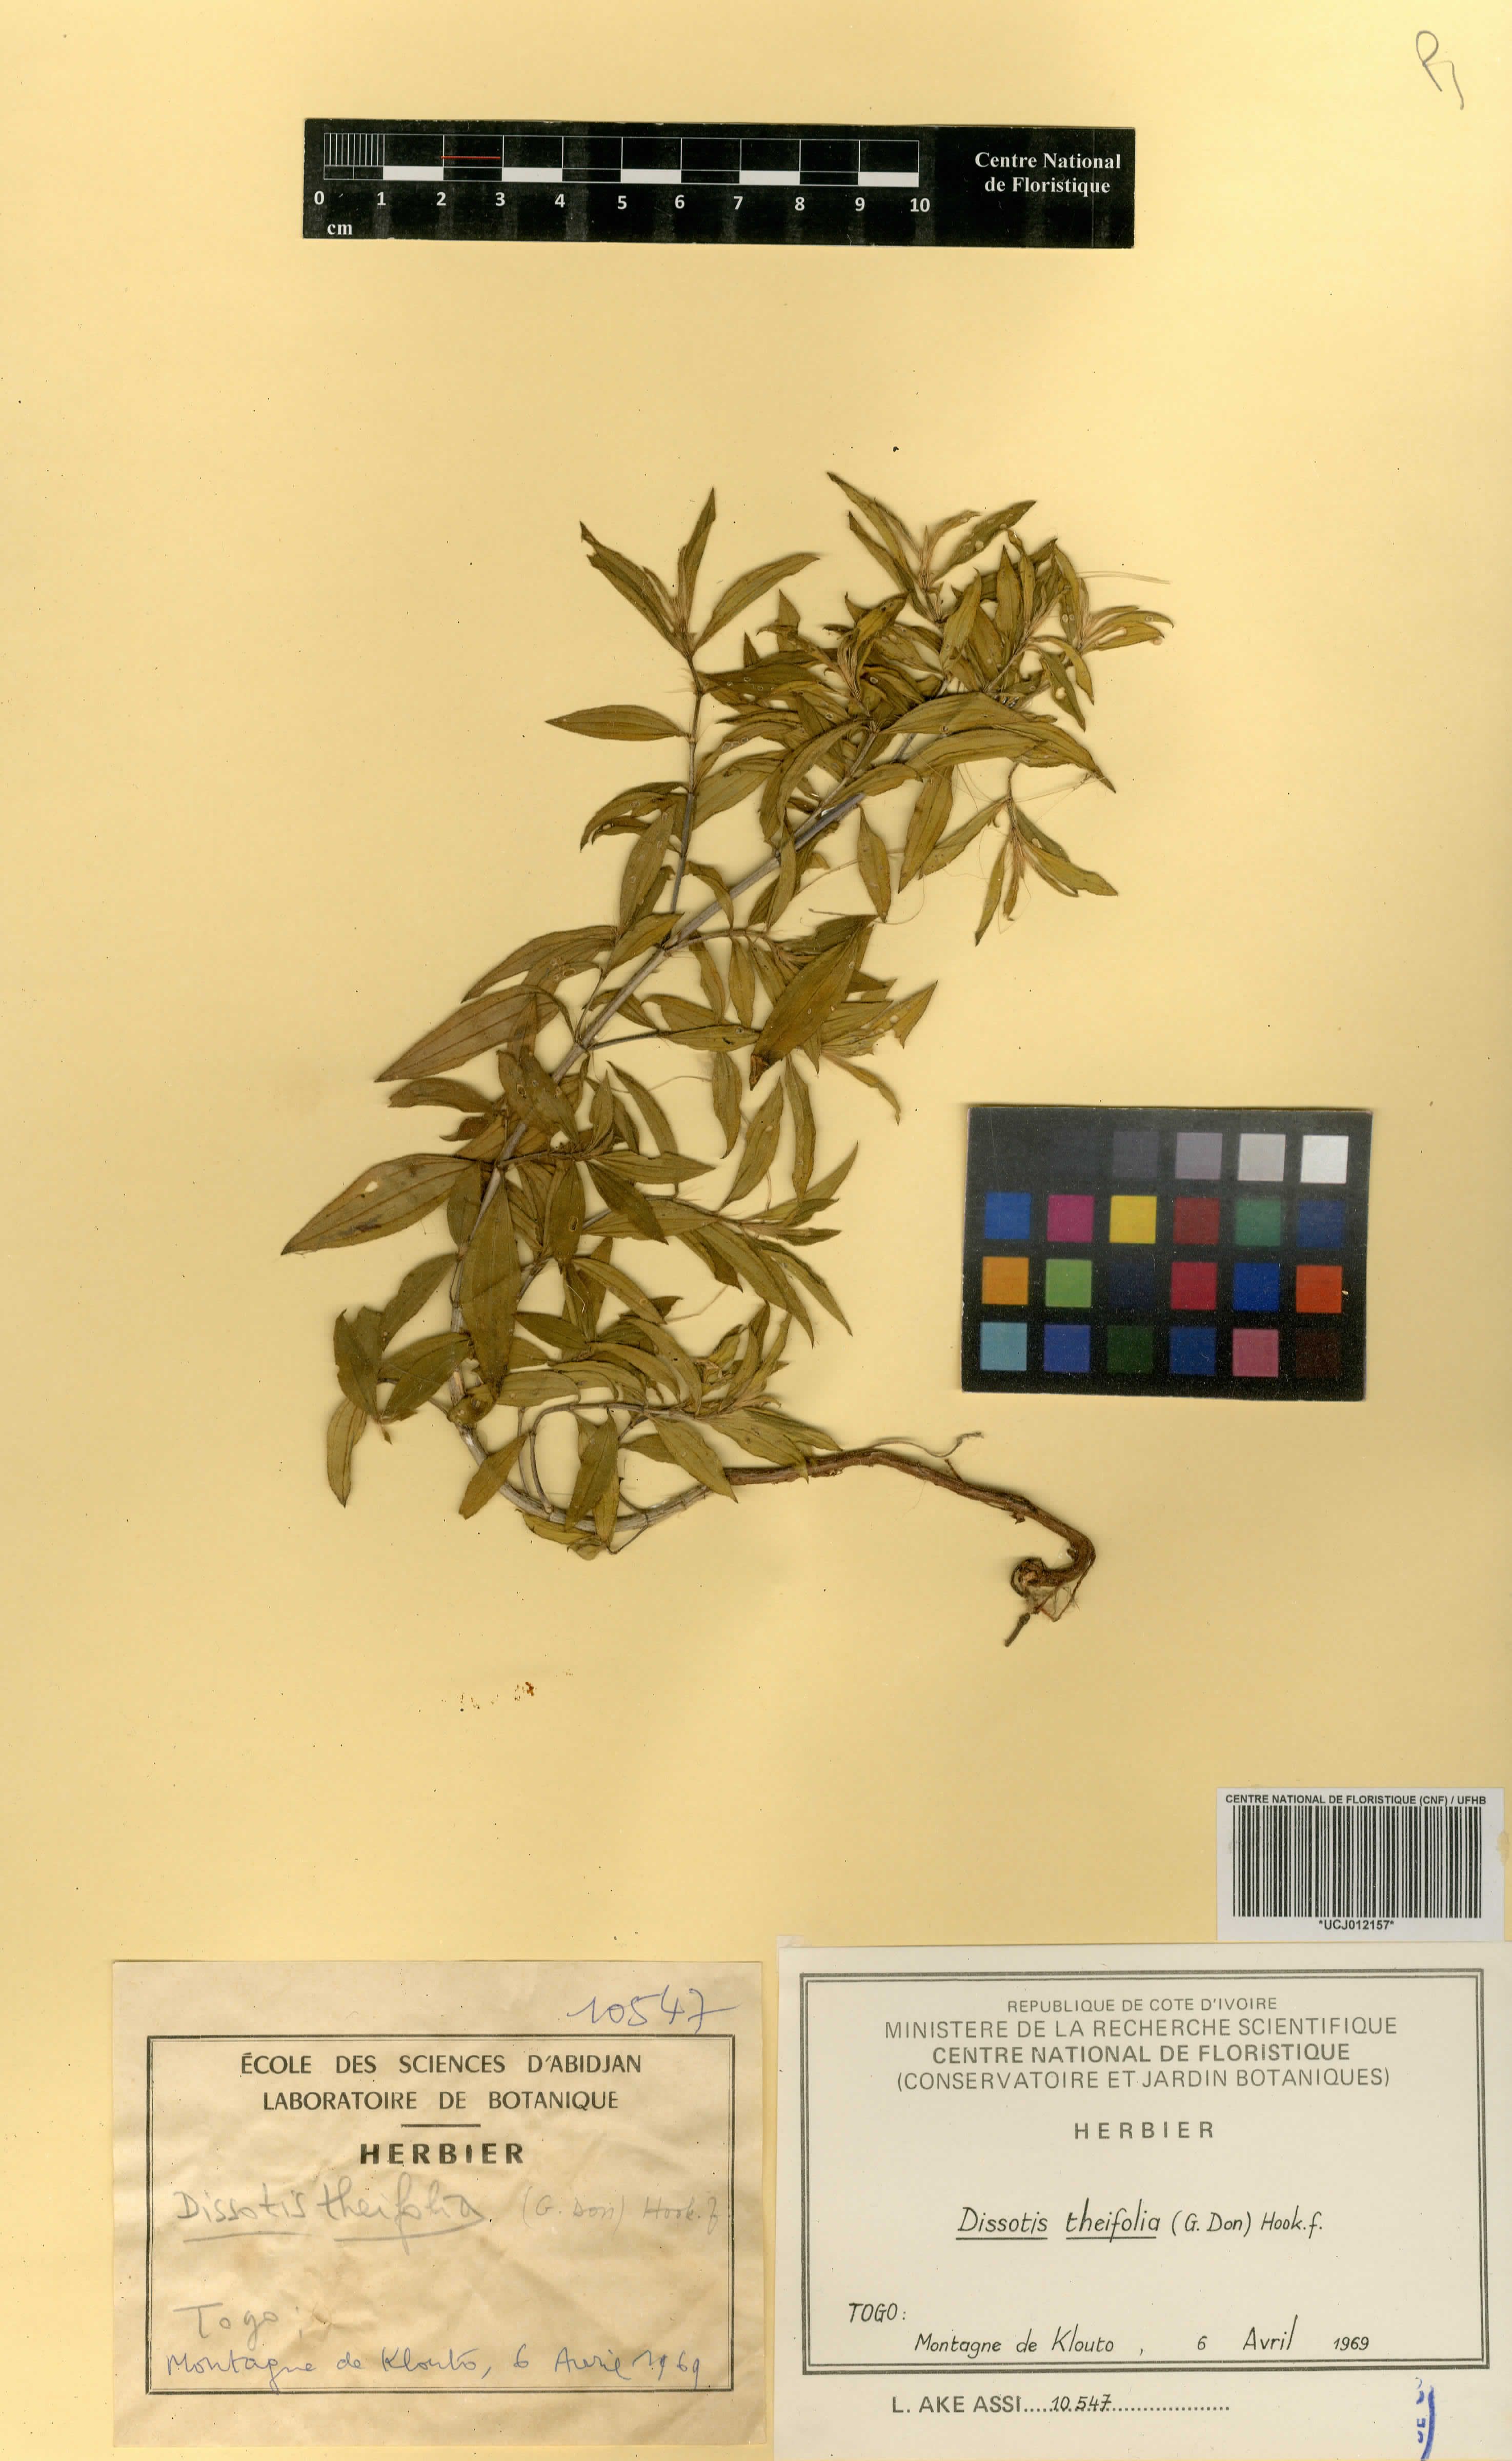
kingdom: Plantae
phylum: Tracheophyta
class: Magnoliopsida
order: Myrtales
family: Melastomataceae
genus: Melastomastrum
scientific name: Melastomastrum theifolium
